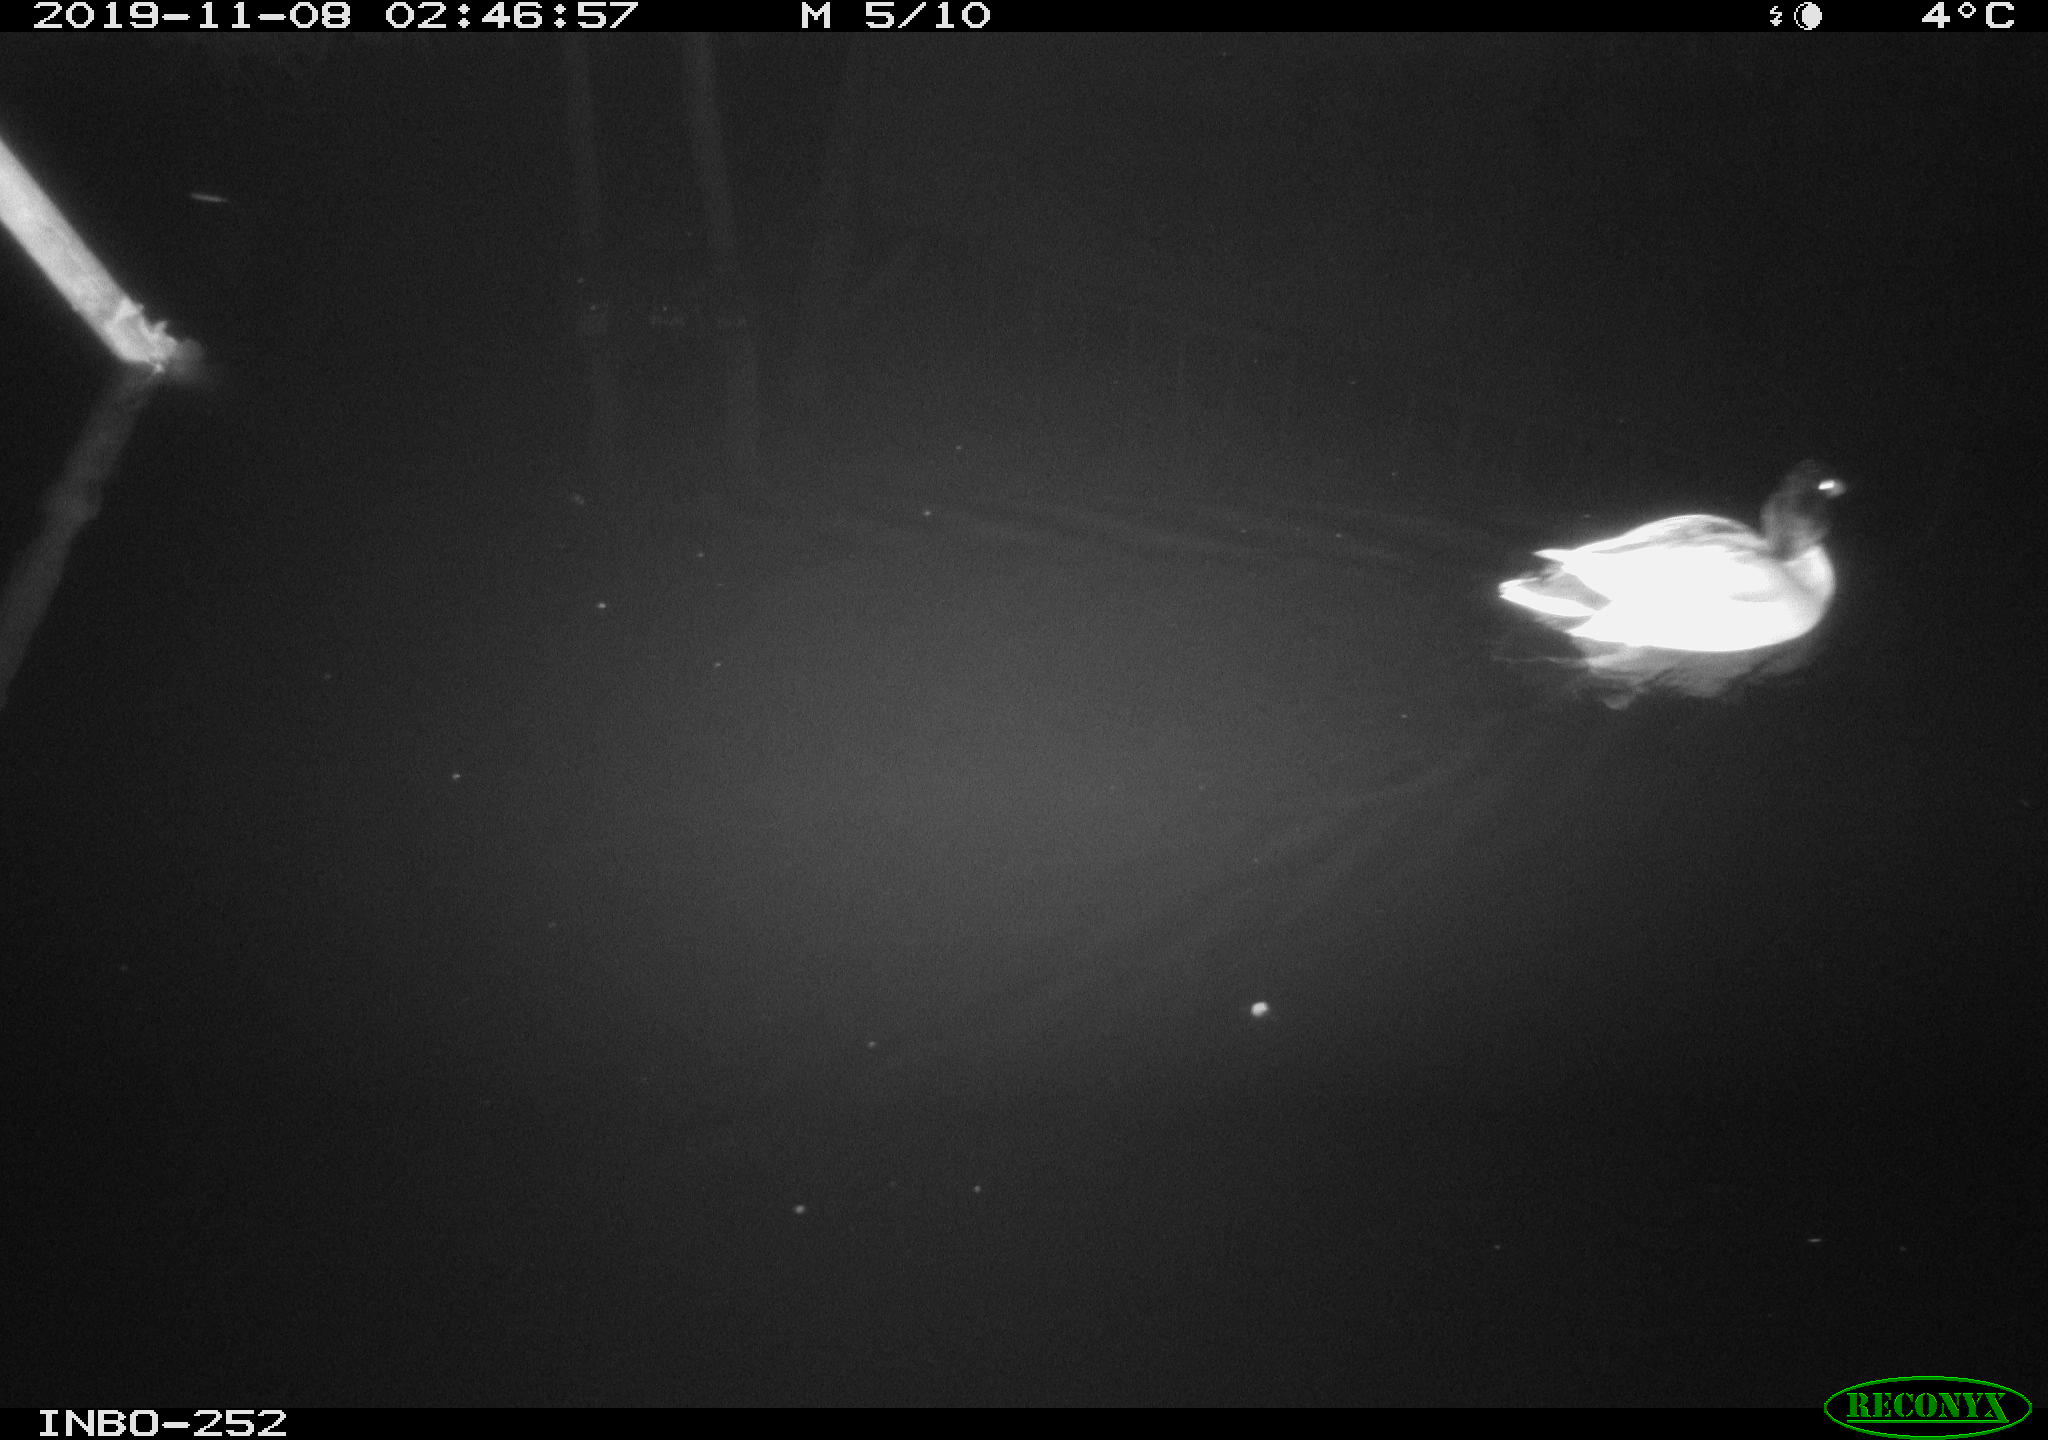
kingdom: Animalia
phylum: Chordata
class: Aves
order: Anseriformes
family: Anatidae
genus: Anas
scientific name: Anas platyrhynchos
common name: Mallard
